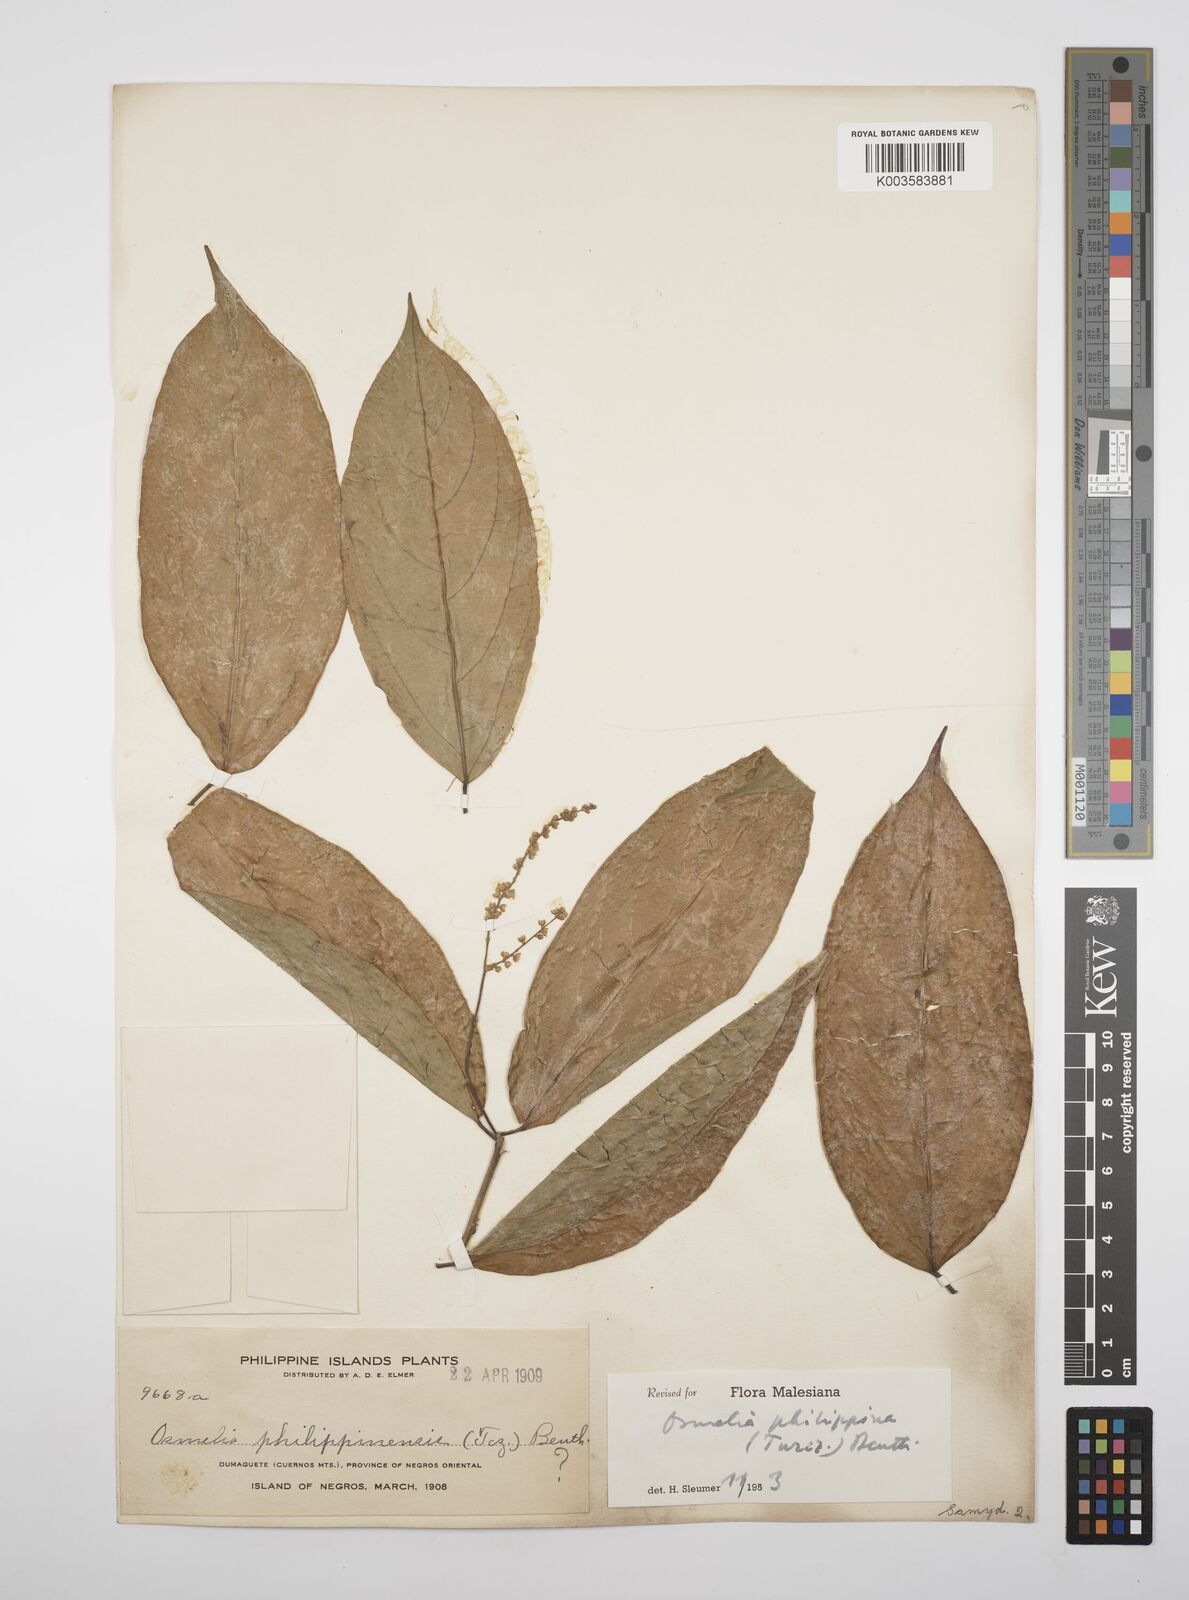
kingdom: Plantae
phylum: Tracheophyta
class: Magnoliopsida
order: Malpighiales
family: Salicaceae
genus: Osmelia
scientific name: Osmelia philippina
